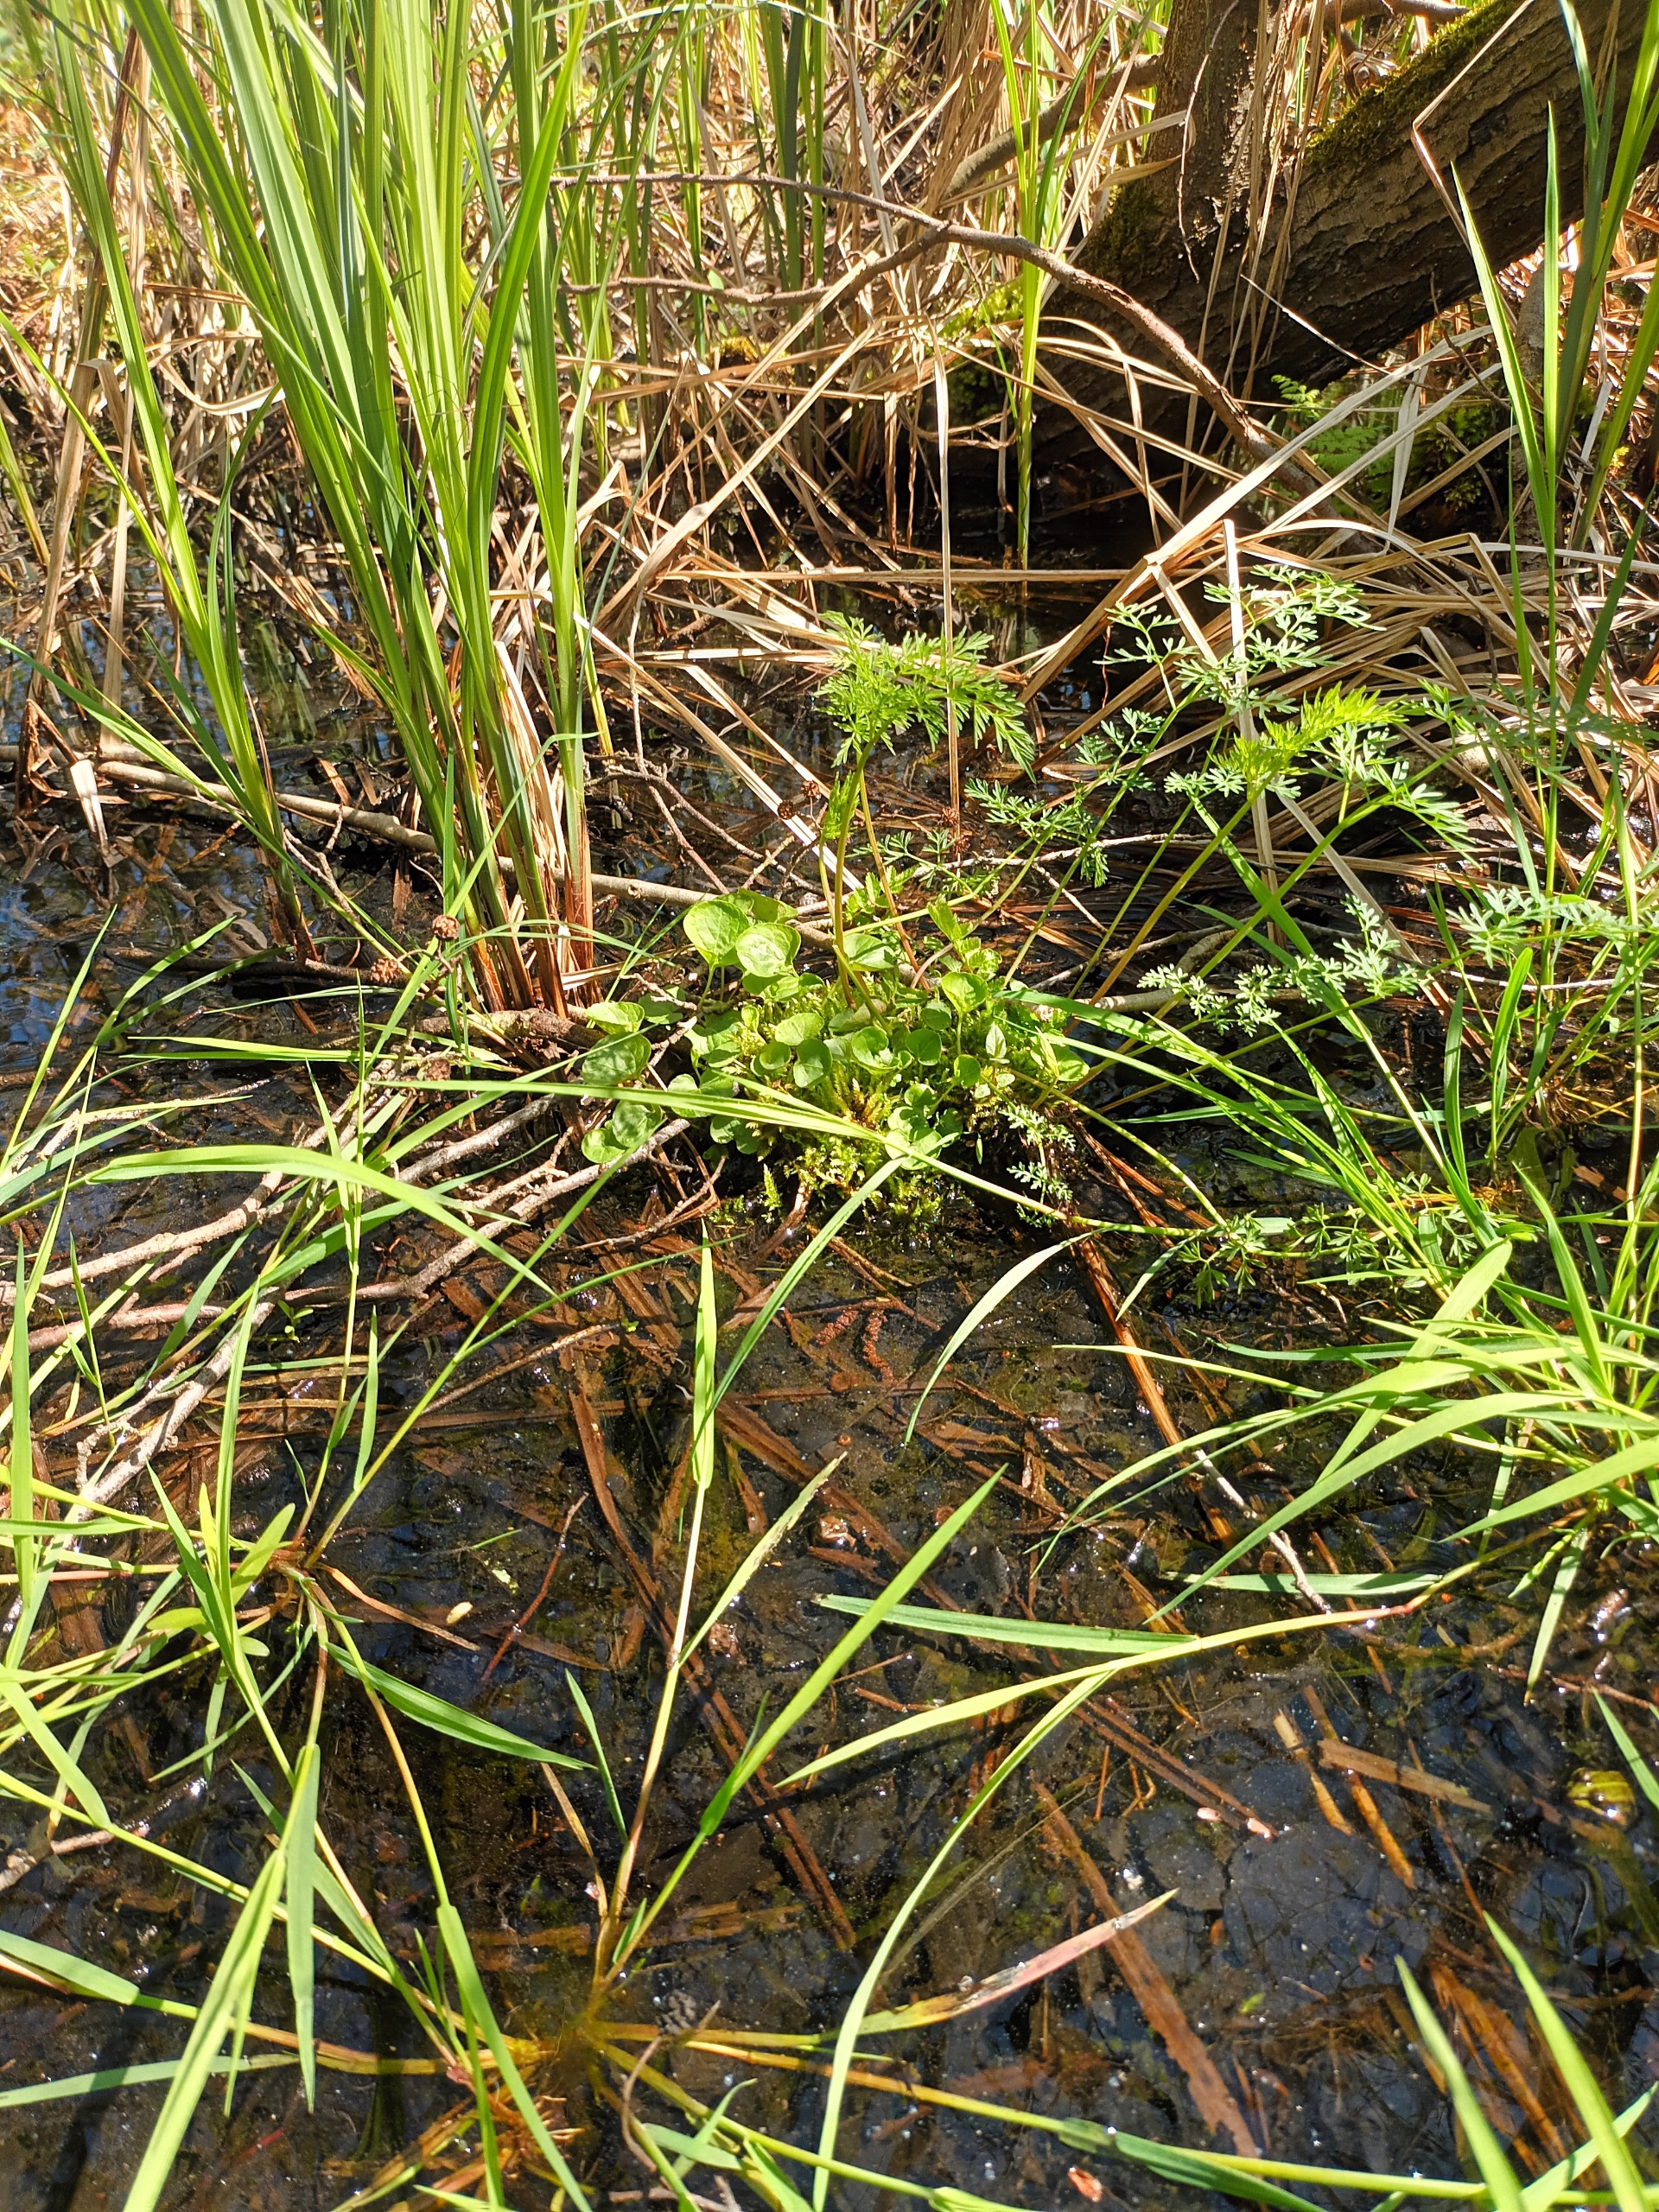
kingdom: Plantae
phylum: Tracheophyta
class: Magnoliopsida
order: Malpighiales
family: Violaceae
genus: Viola
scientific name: Viola palustris
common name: Eng-viol
